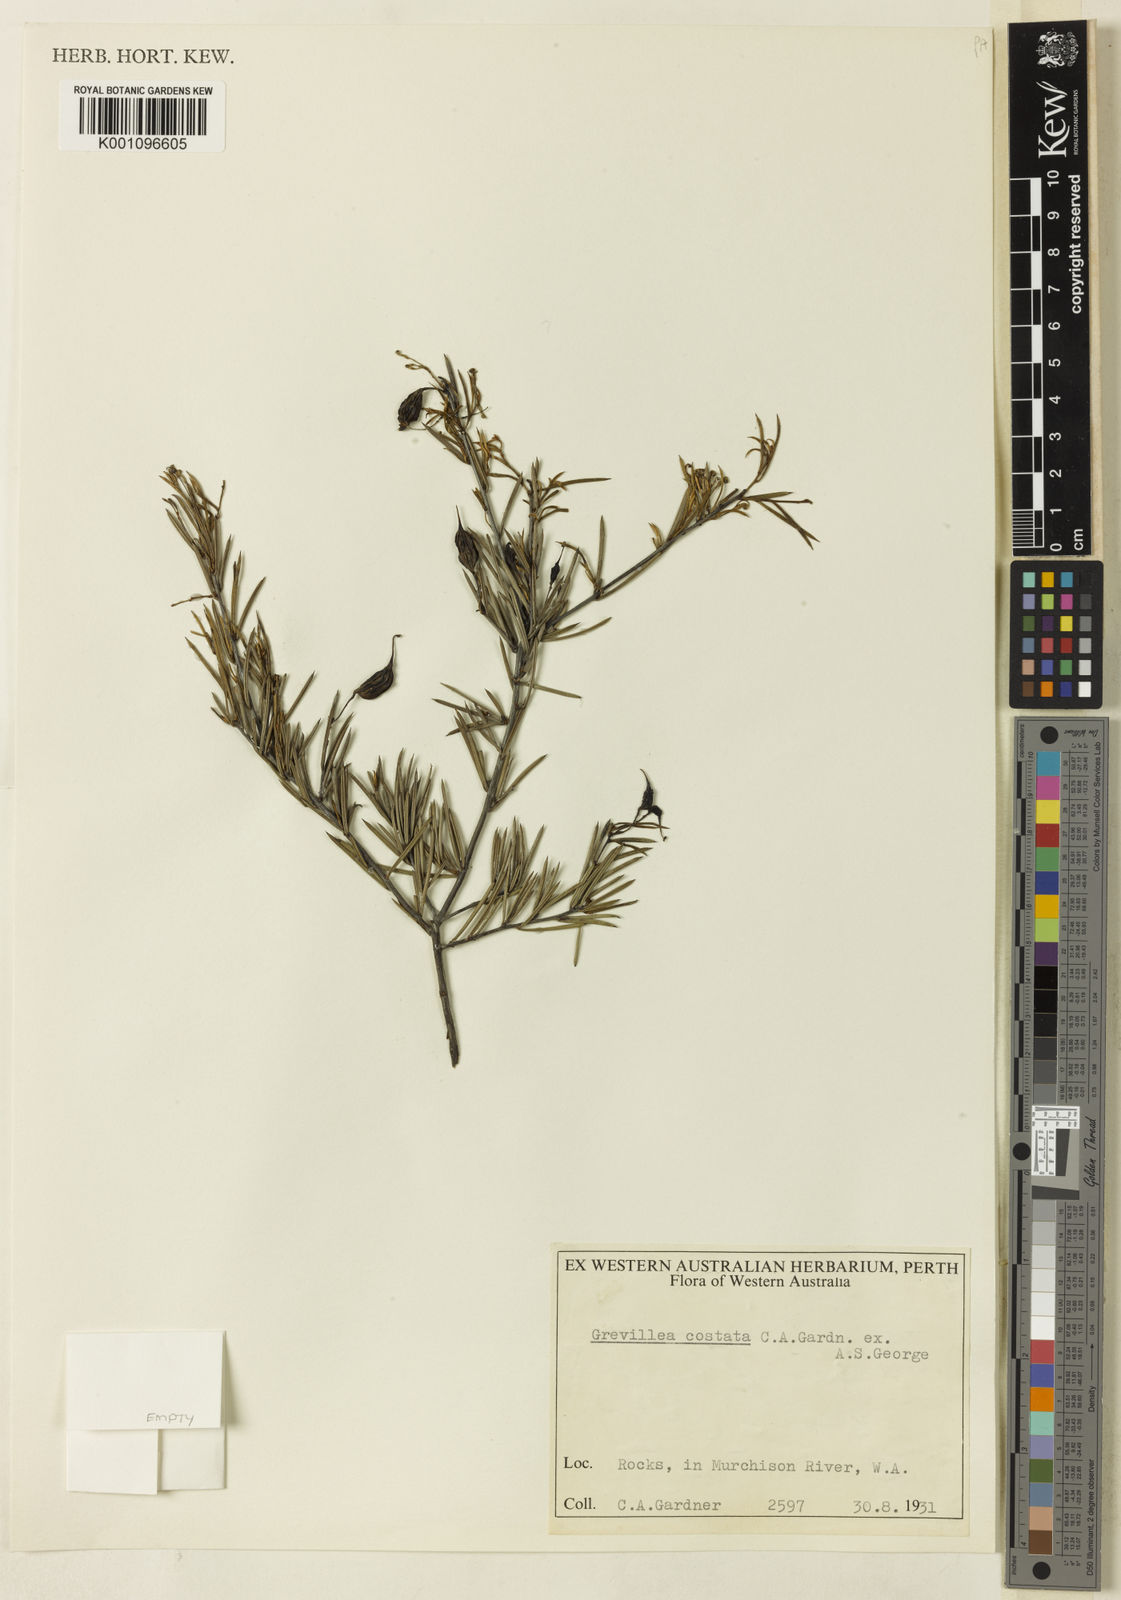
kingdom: Plantae
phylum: Tracheophyta
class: Magnoliopsida
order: Proteales
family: Proteaceae
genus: Grevillea
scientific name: Grevillea costata
